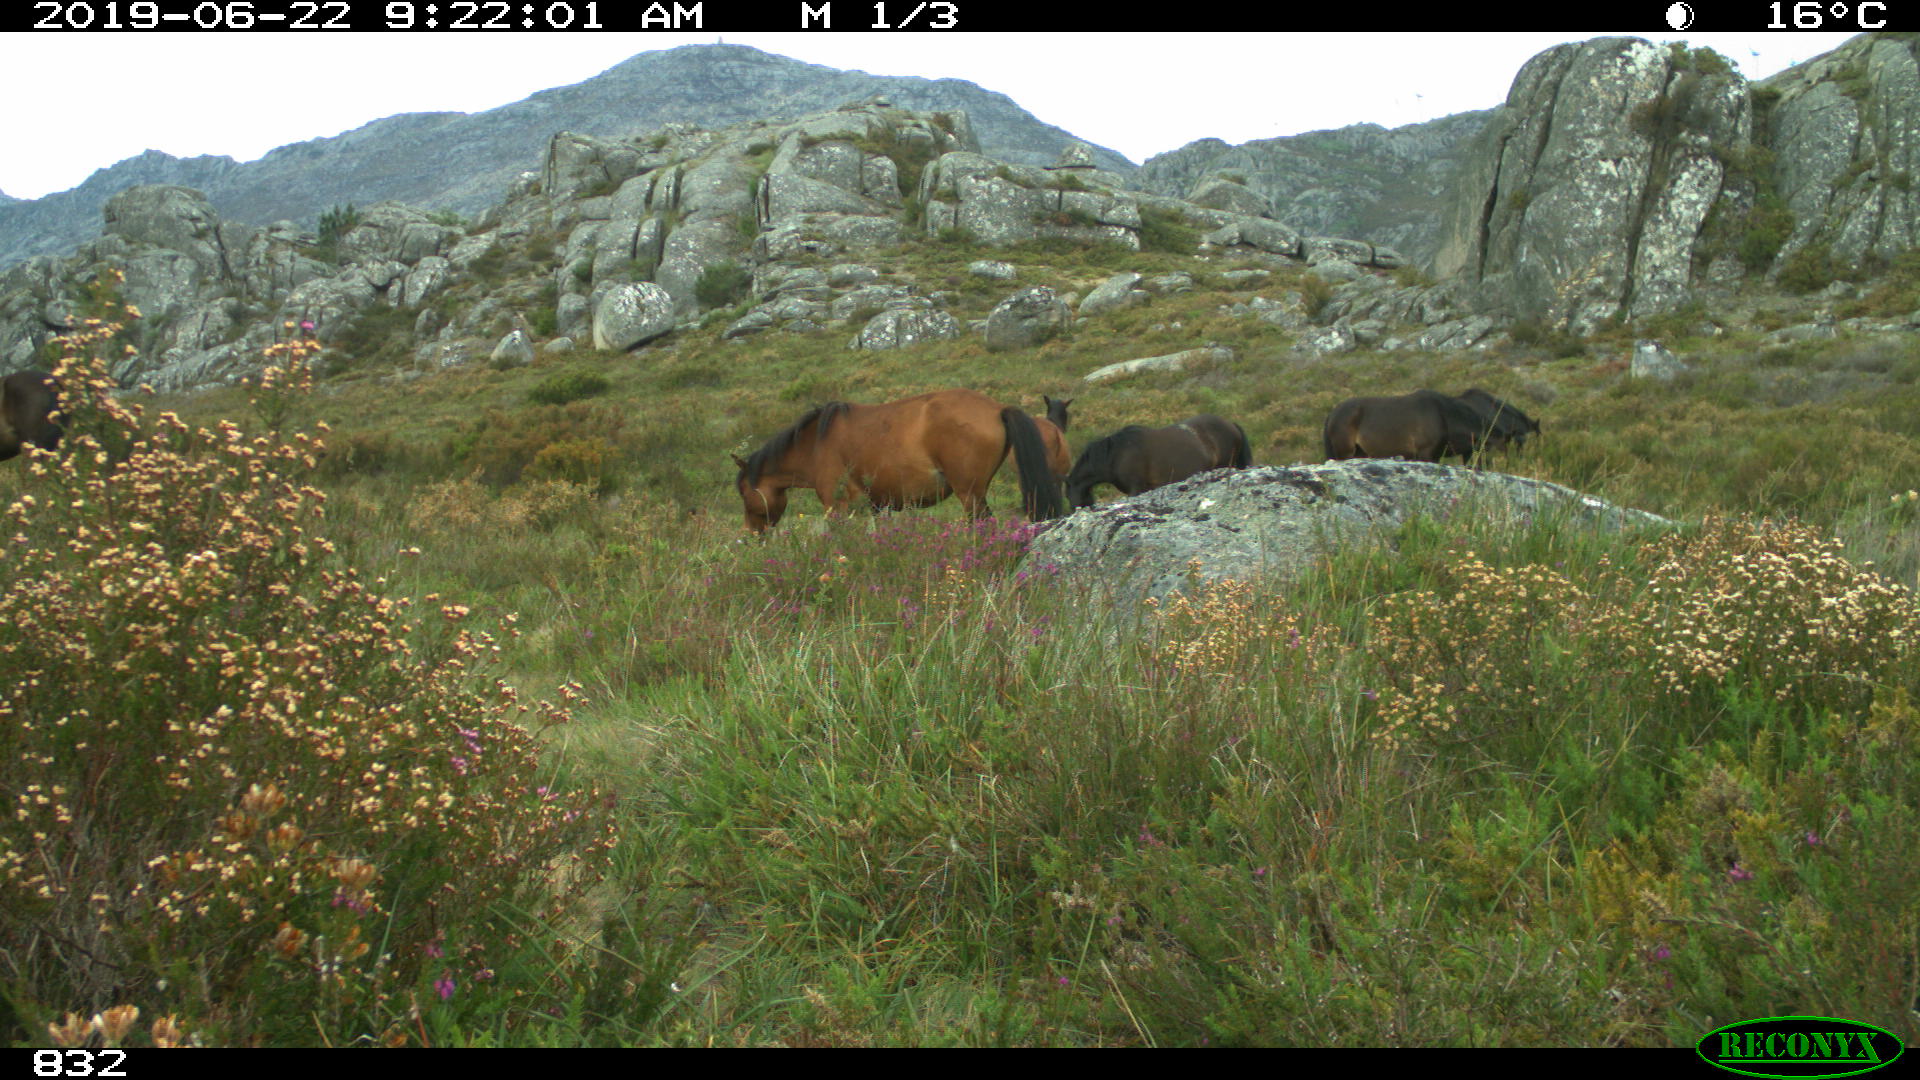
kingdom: Animalia
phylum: Chordata
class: Mammalia
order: Perissodactyla
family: Equidae
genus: Equus
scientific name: Equus caballus
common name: Horse
